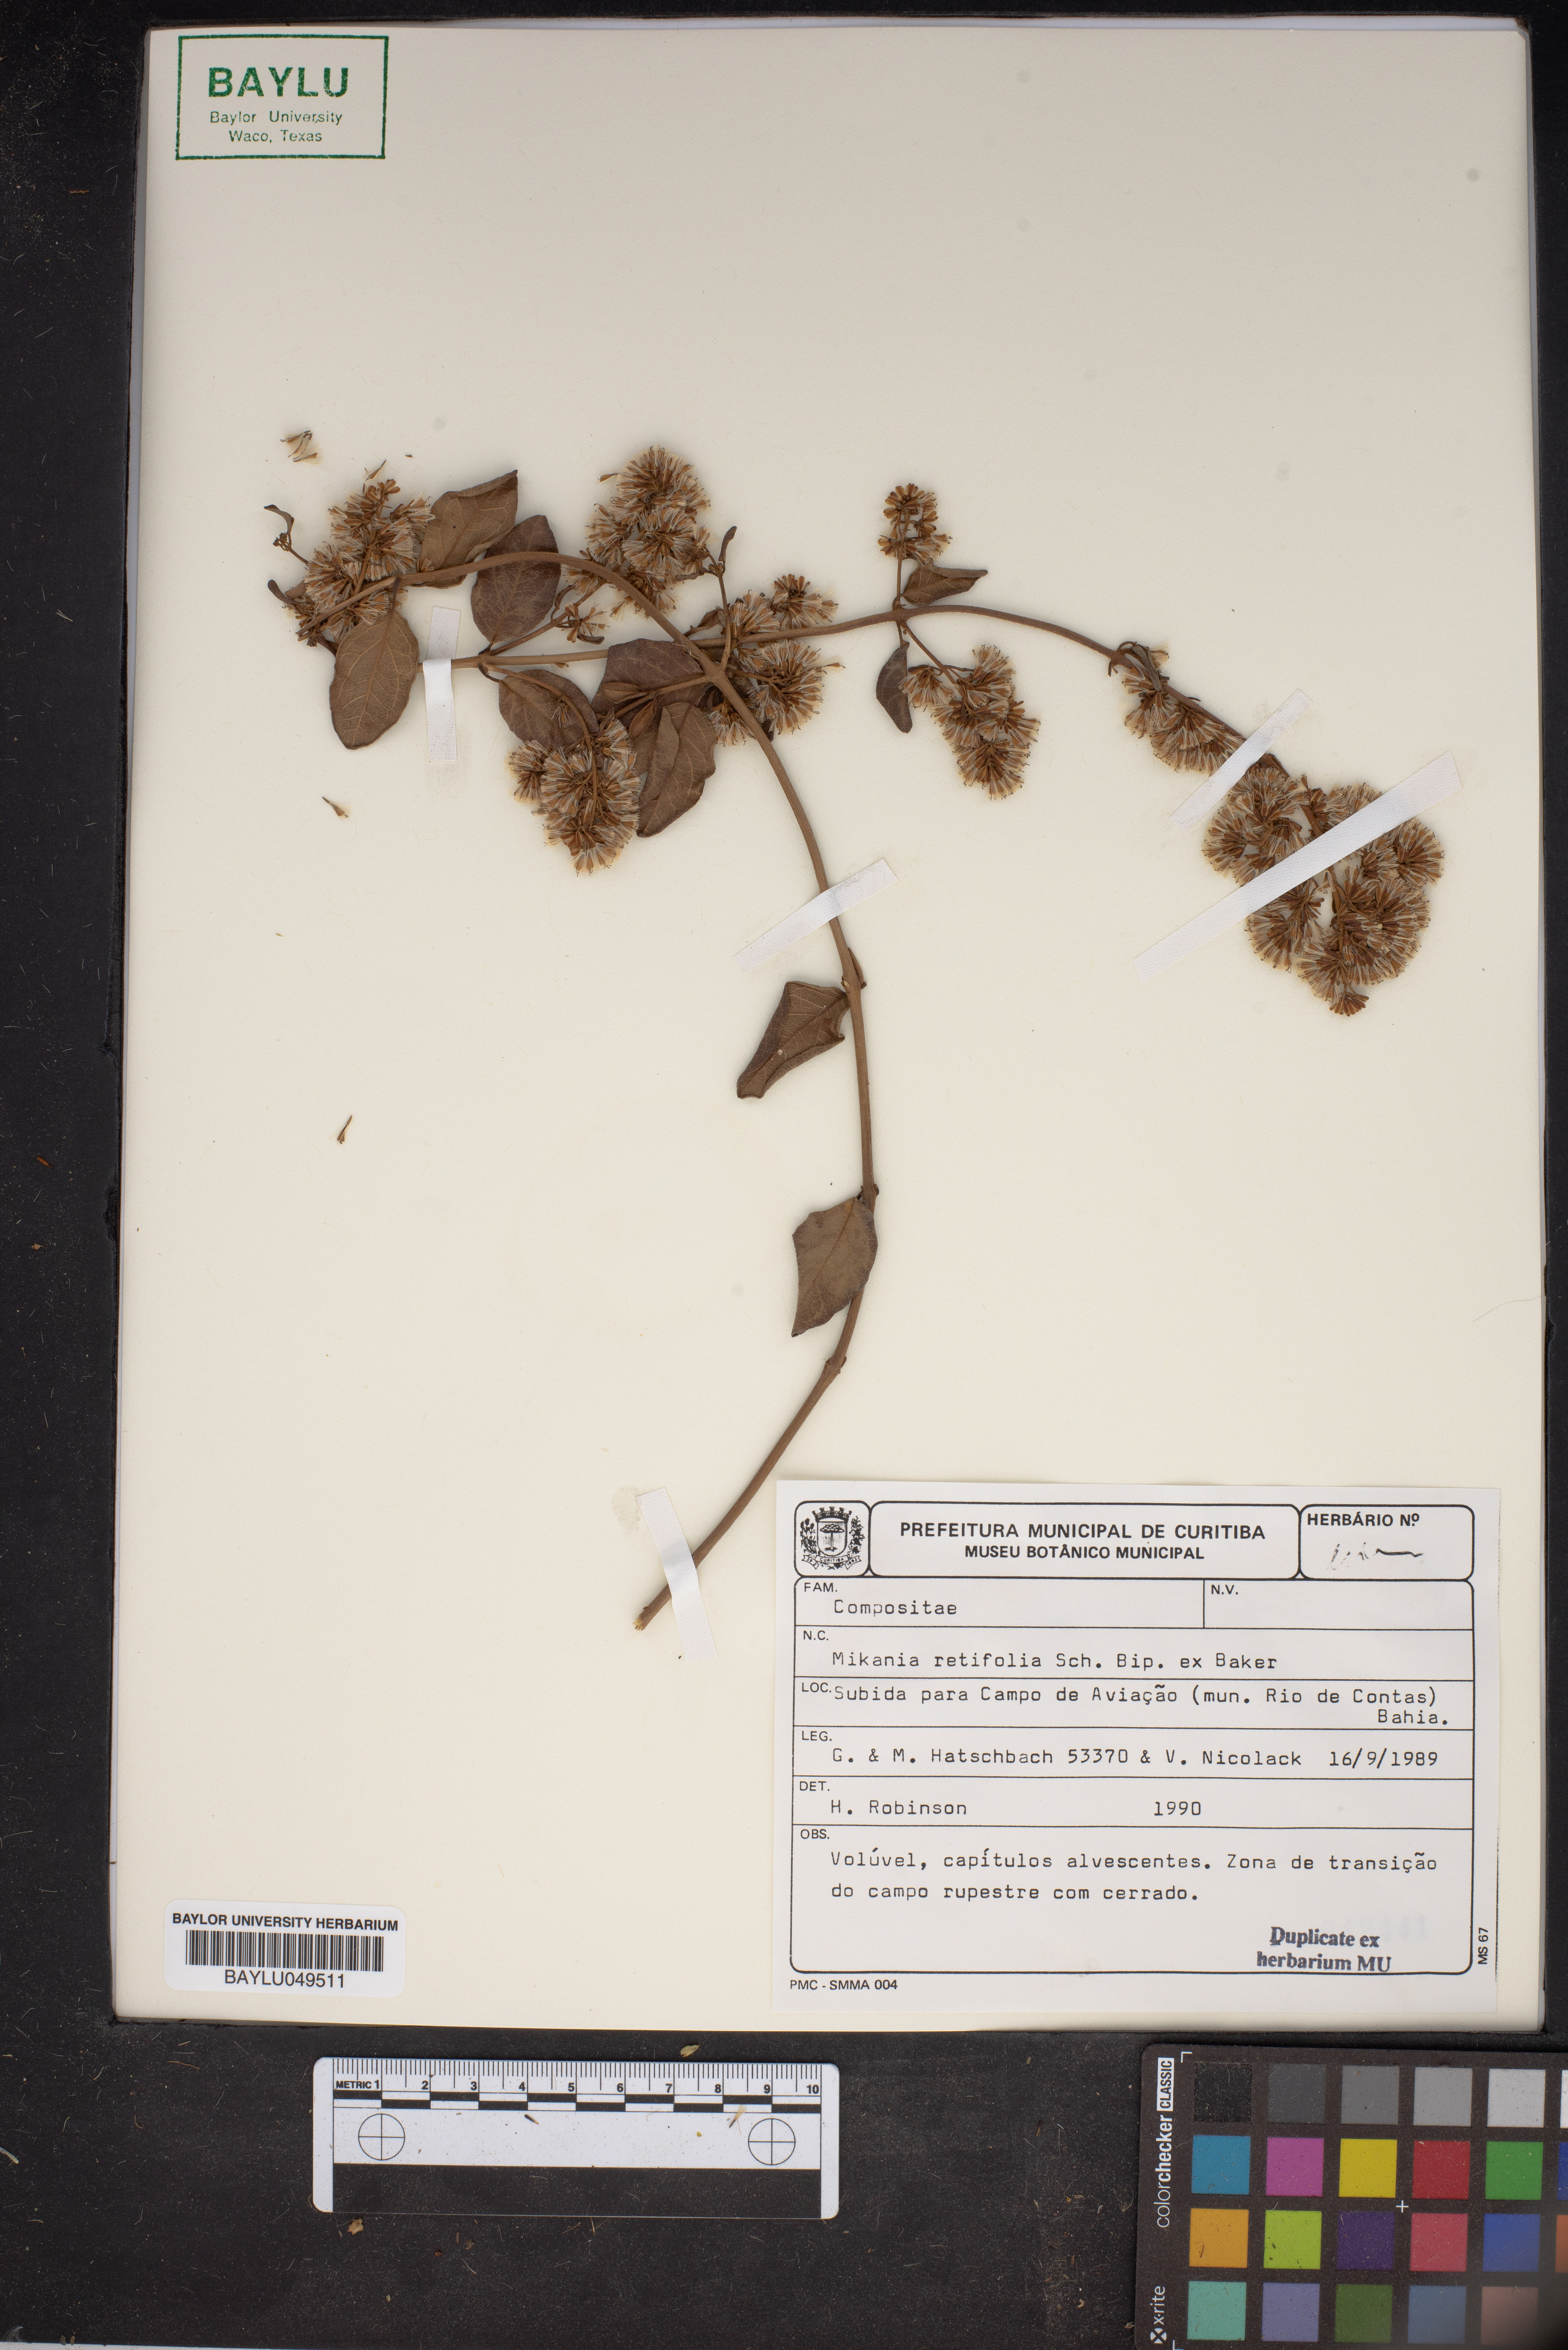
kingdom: Plantae
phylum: Tracheophyta
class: Magnoliopsida
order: Asterales
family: Asteraceae
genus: Mikania
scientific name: Mikania retifolia
